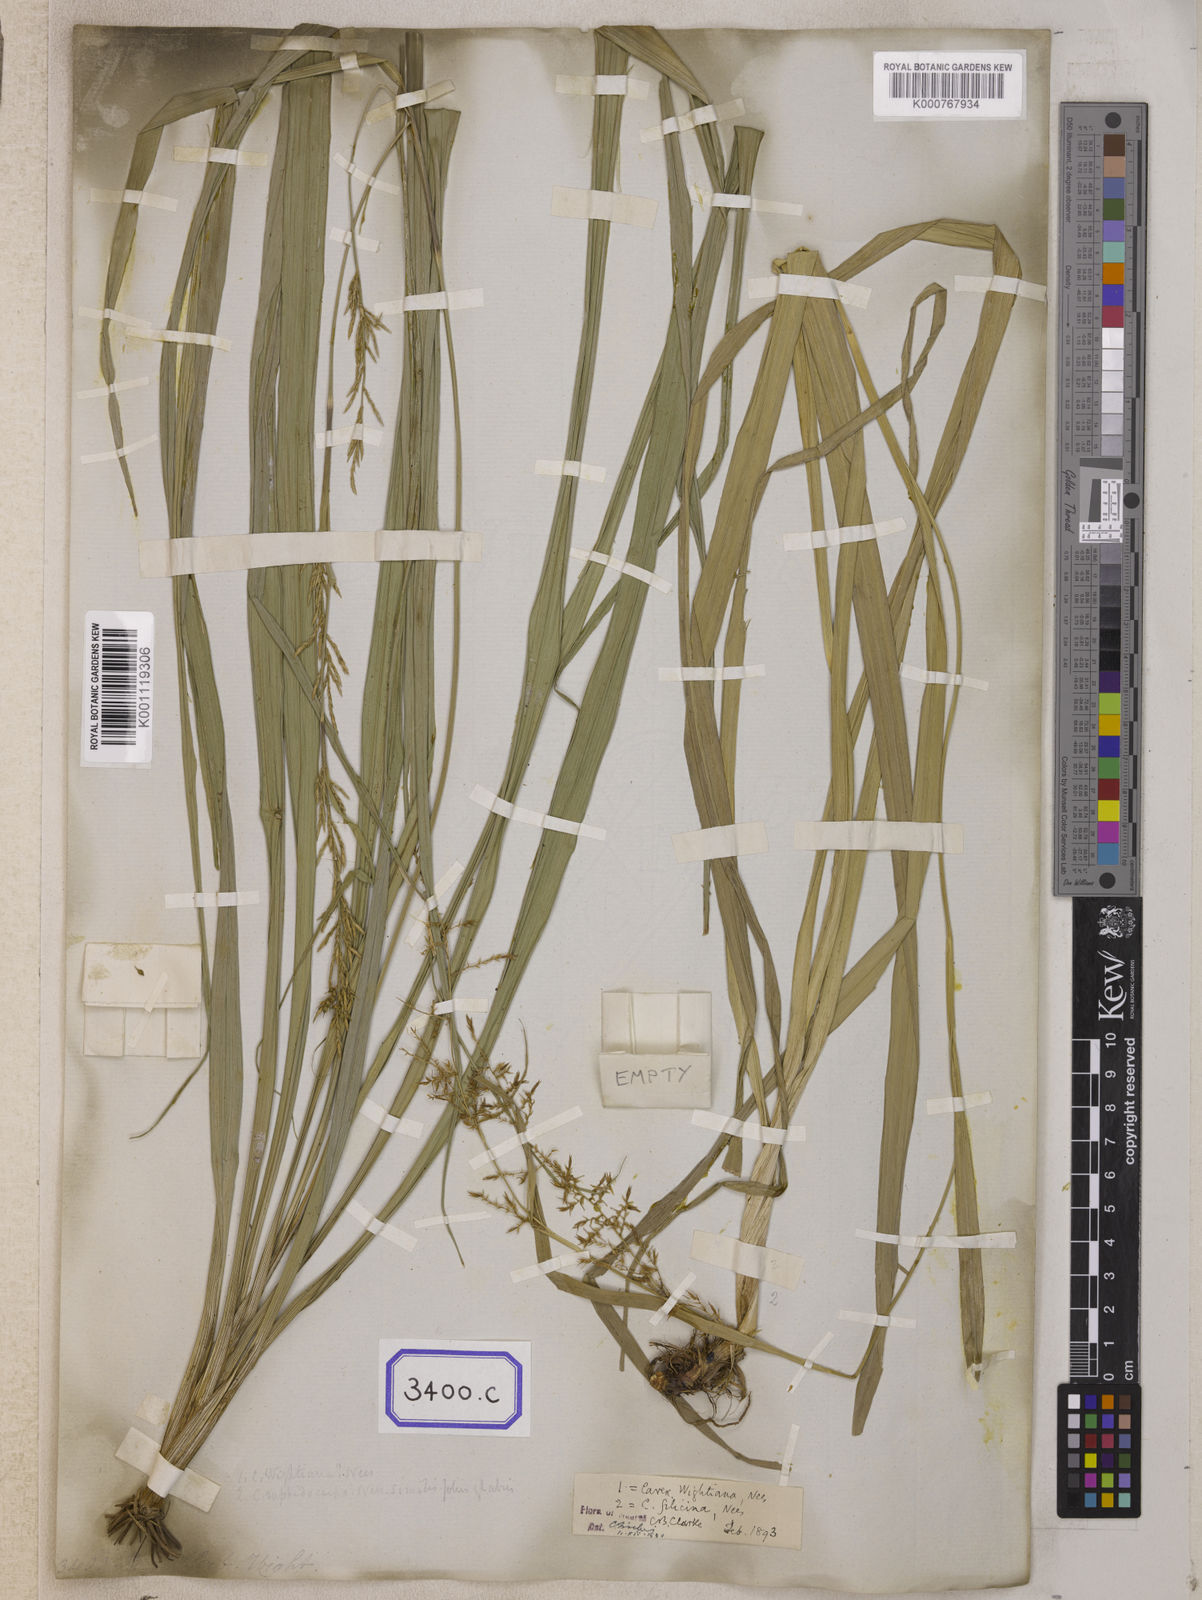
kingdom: Plantae
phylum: Tracheophyta
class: Liliopsida
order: Poales
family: Cyperaceae
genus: Carex
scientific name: Carex
